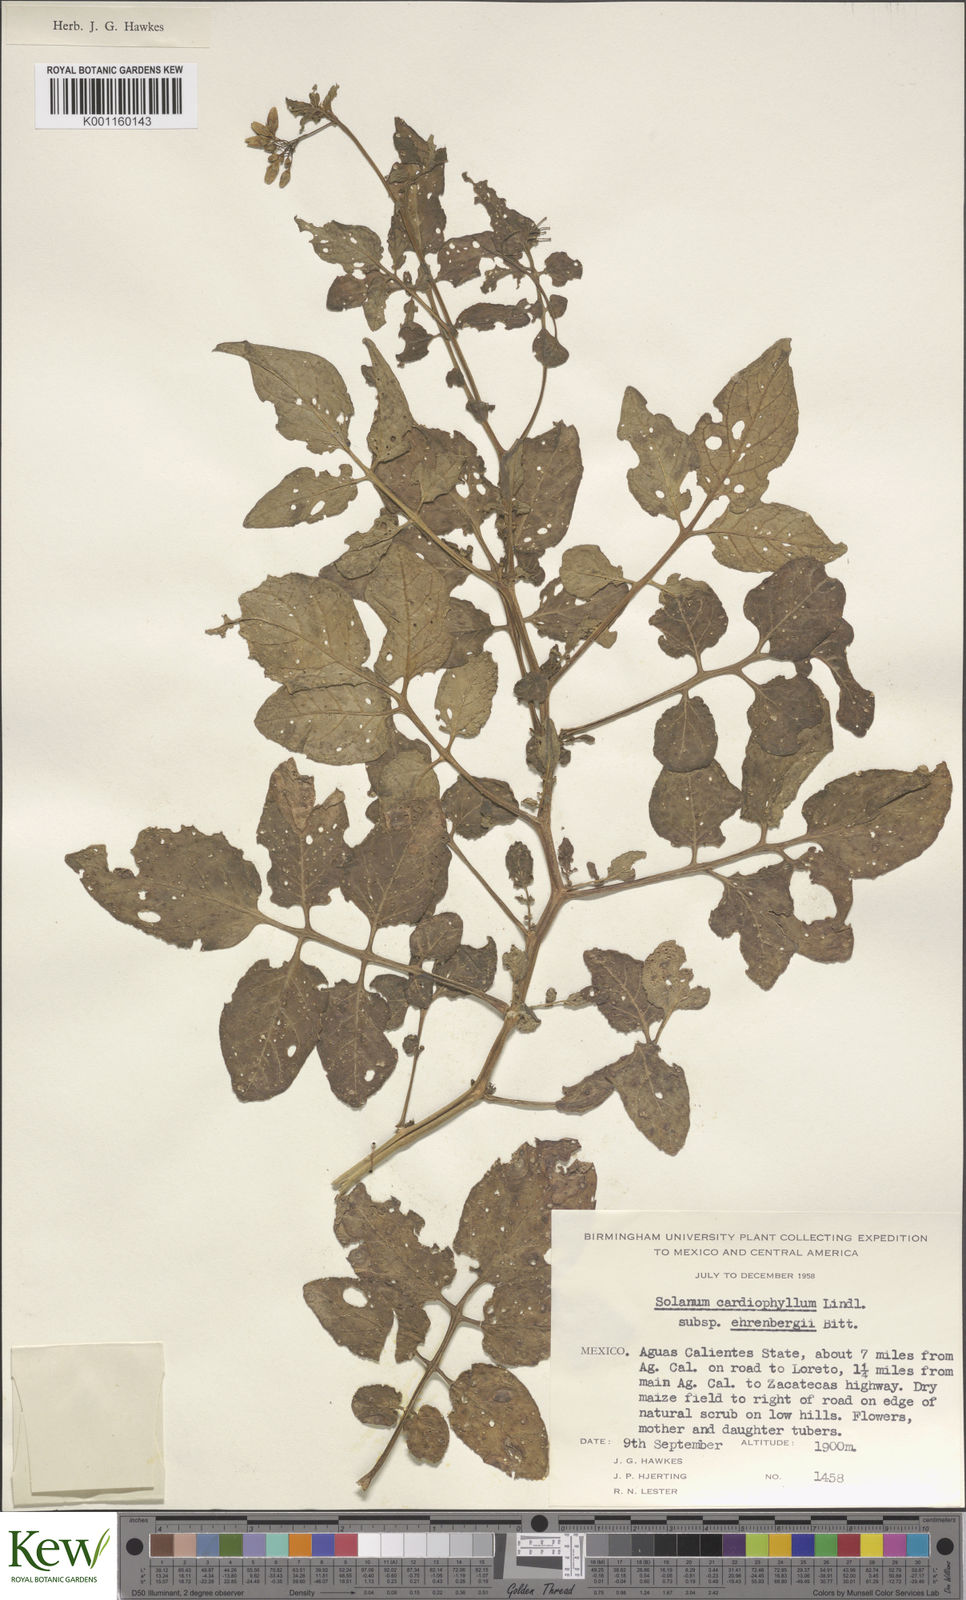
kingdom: Plantae
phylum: Tracheophyta
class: Magnoliopsida
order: Solanales
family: Solanaceae
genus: Solanum
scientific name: Solanum cardiophyllum
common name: Heartleaf horsenettle
